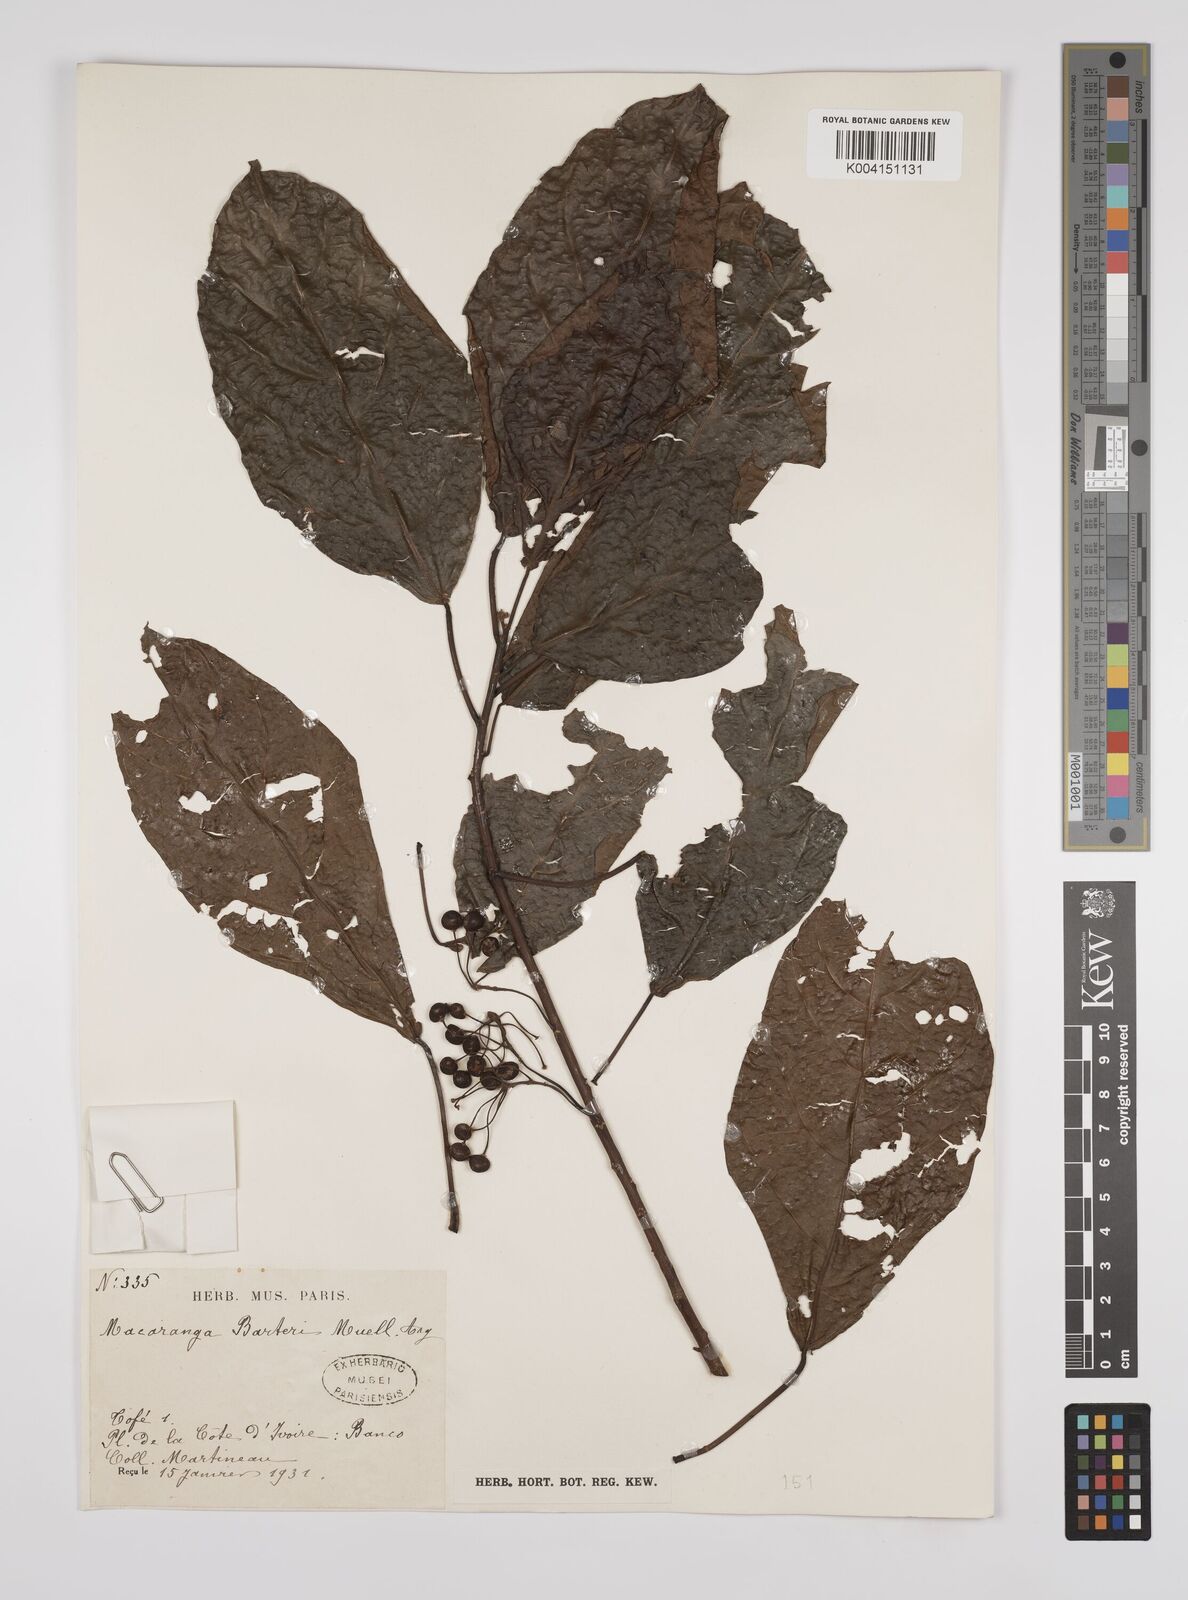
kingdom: Plantae
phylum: Tracheophyta
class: Magnoliopsida
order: Malpighiales
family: Euphorbiaceae
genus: Macaranga
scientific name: Macaranga barteri
